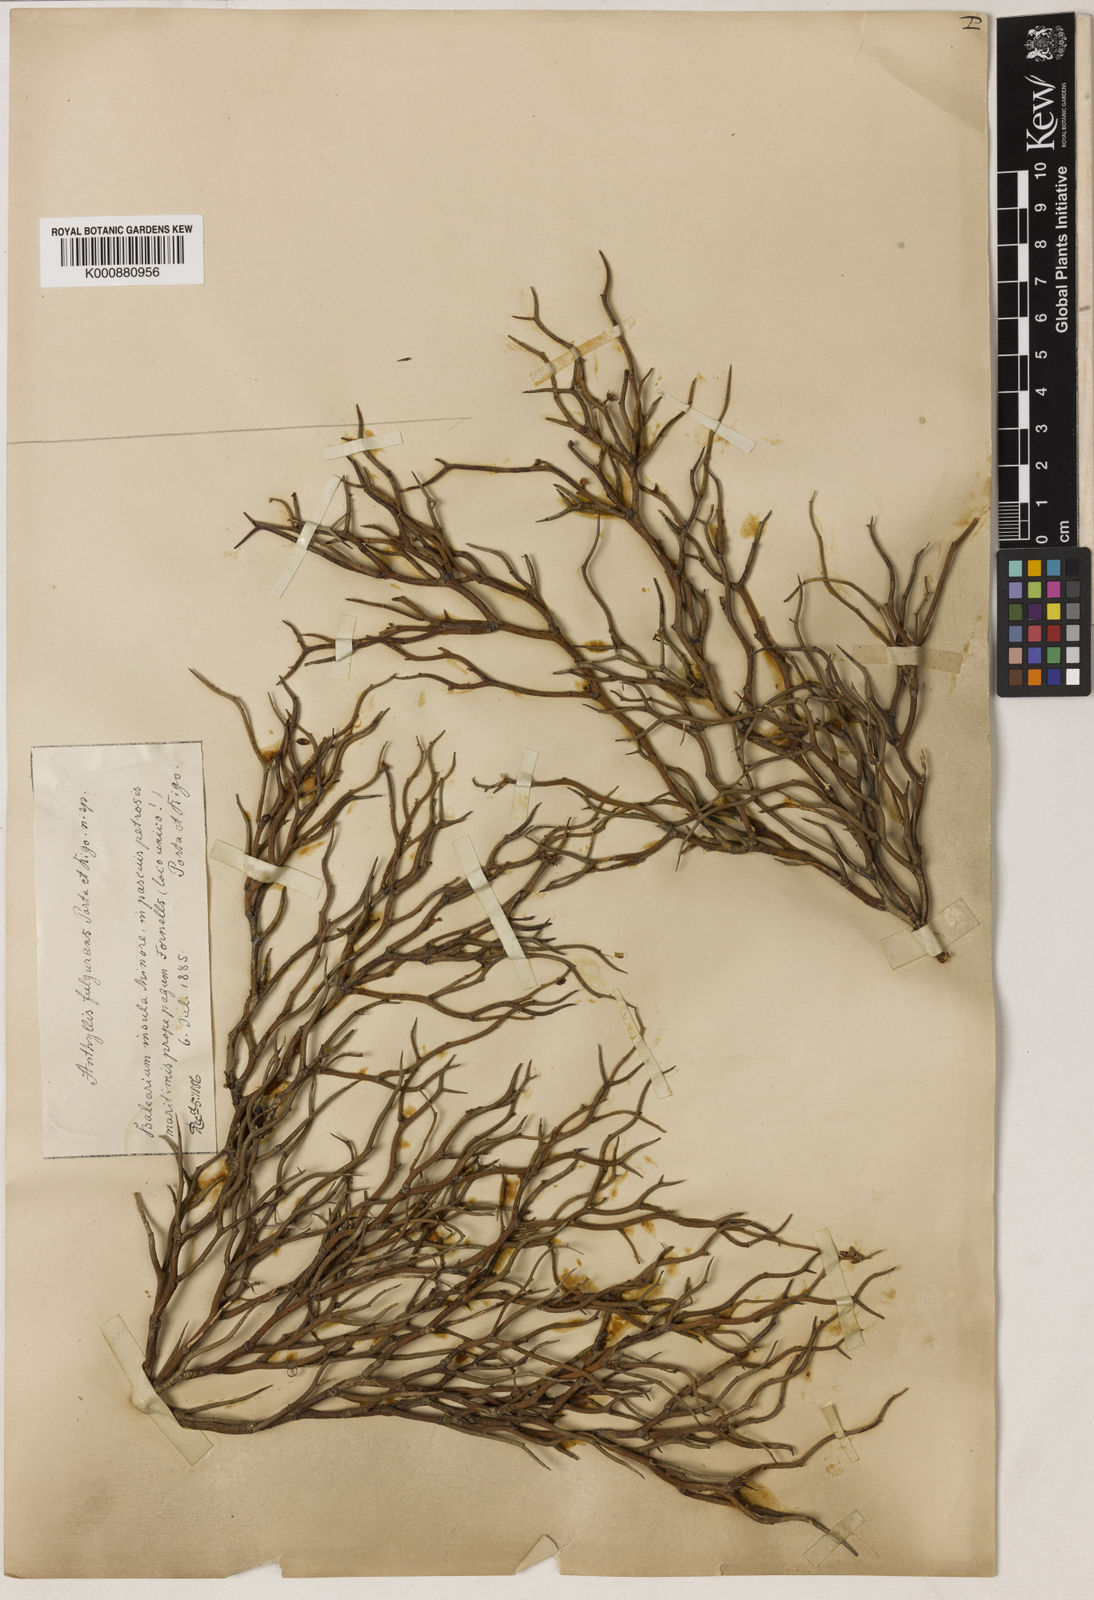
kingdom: Plantae
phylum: Tracheophyta
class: Magnoliopsida
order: Fabales
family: Fabaceae
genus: Lotus
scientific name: Lotus fulgurans
